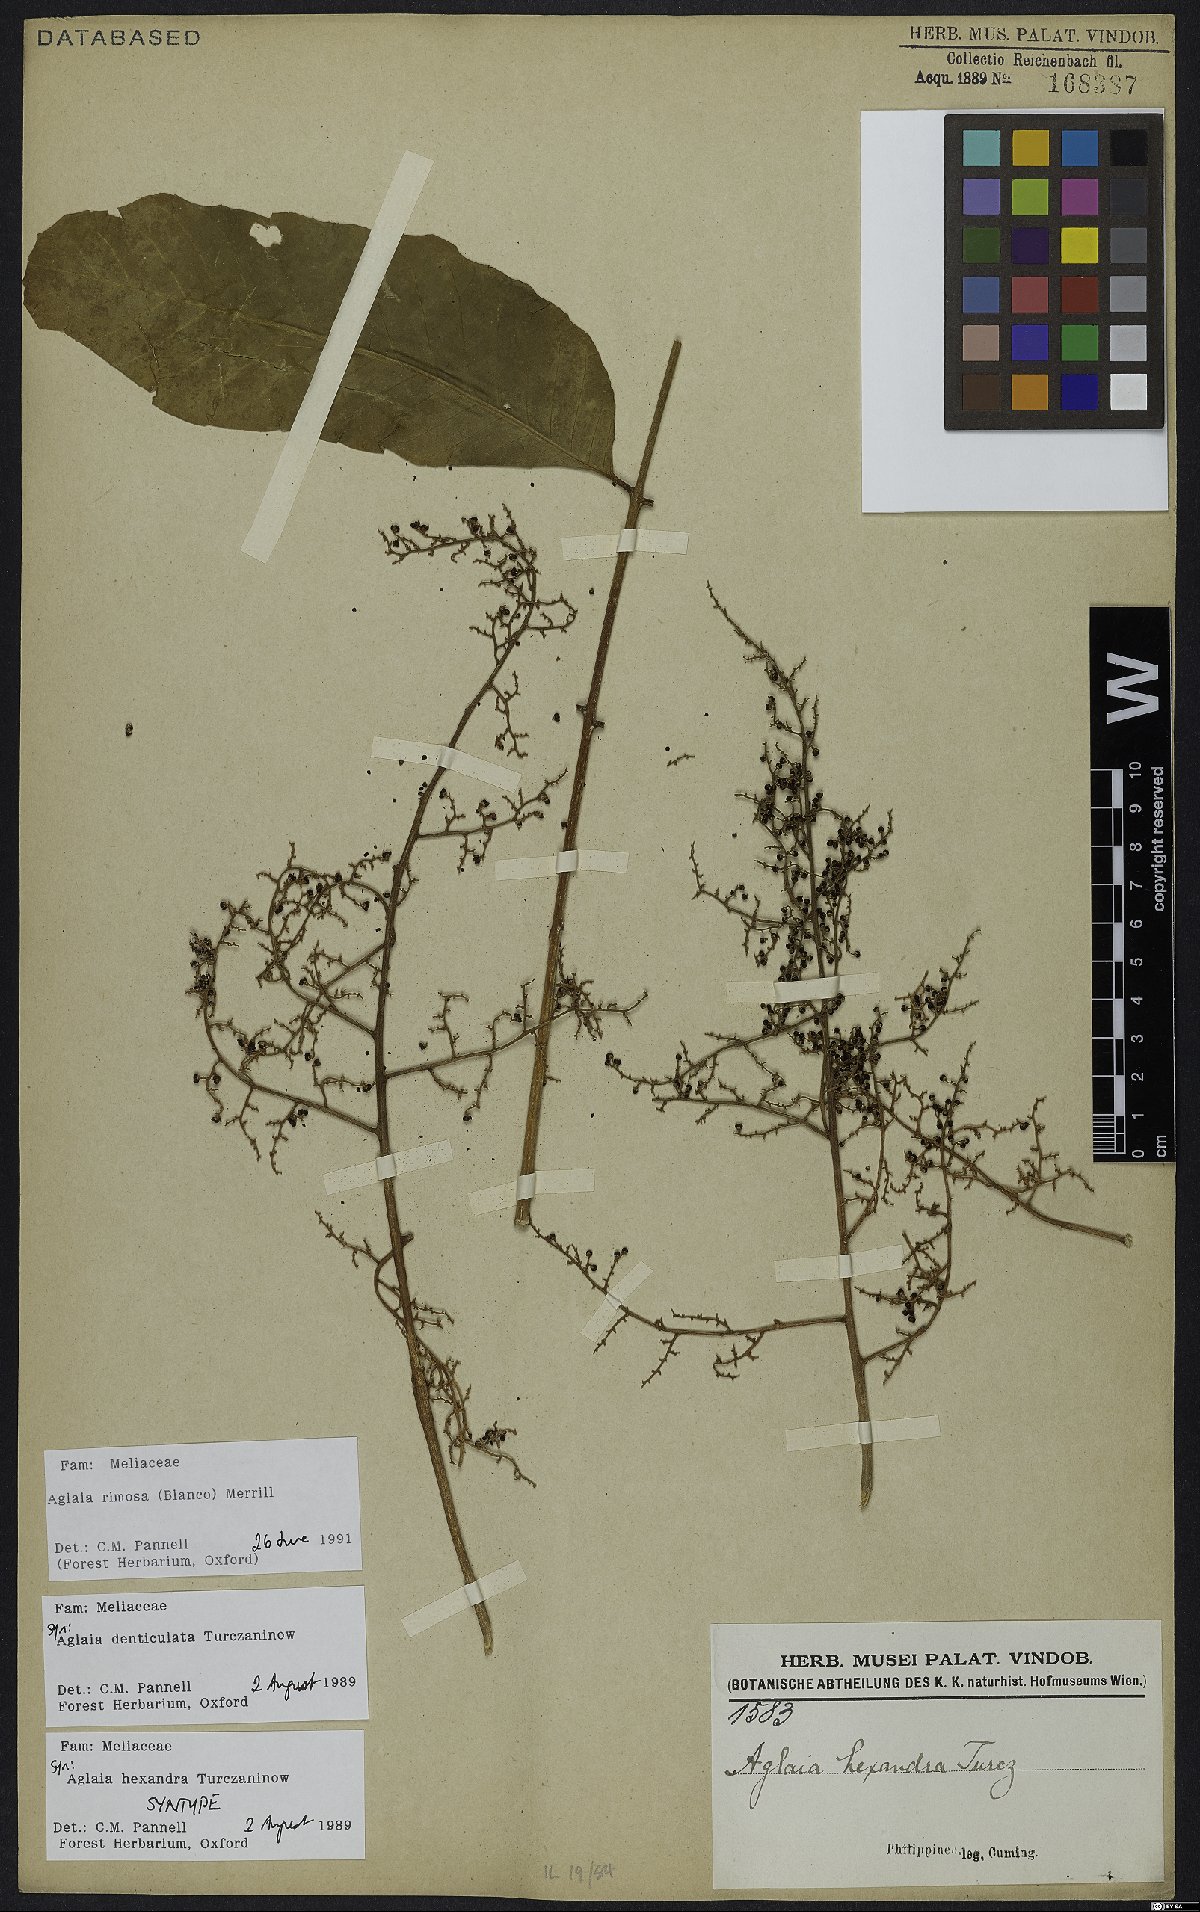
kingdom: Plantae
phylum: Tracheophyta
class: Magnoliopsida
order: Sapindales
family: Meliaceae
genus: Aglaia
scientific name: Aglaia rimosa
